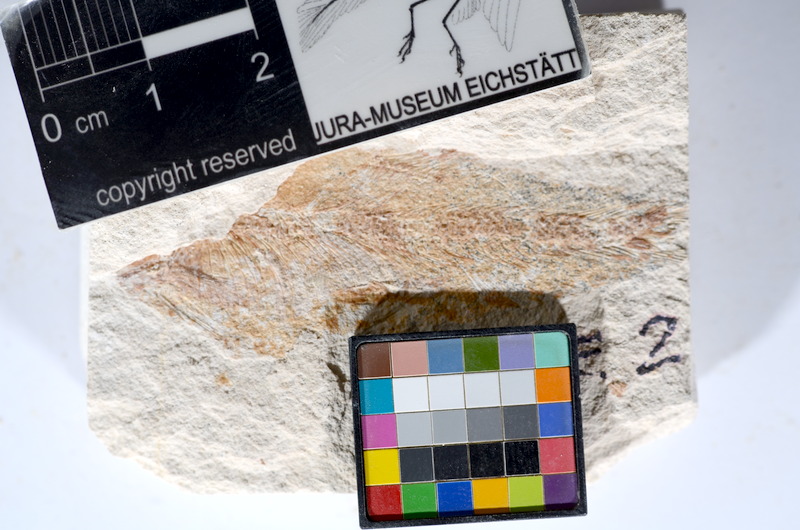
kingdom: Animalia
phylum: Chordata
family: Ascalaboidae
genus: Tharsis
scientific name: Tharsis dubius
